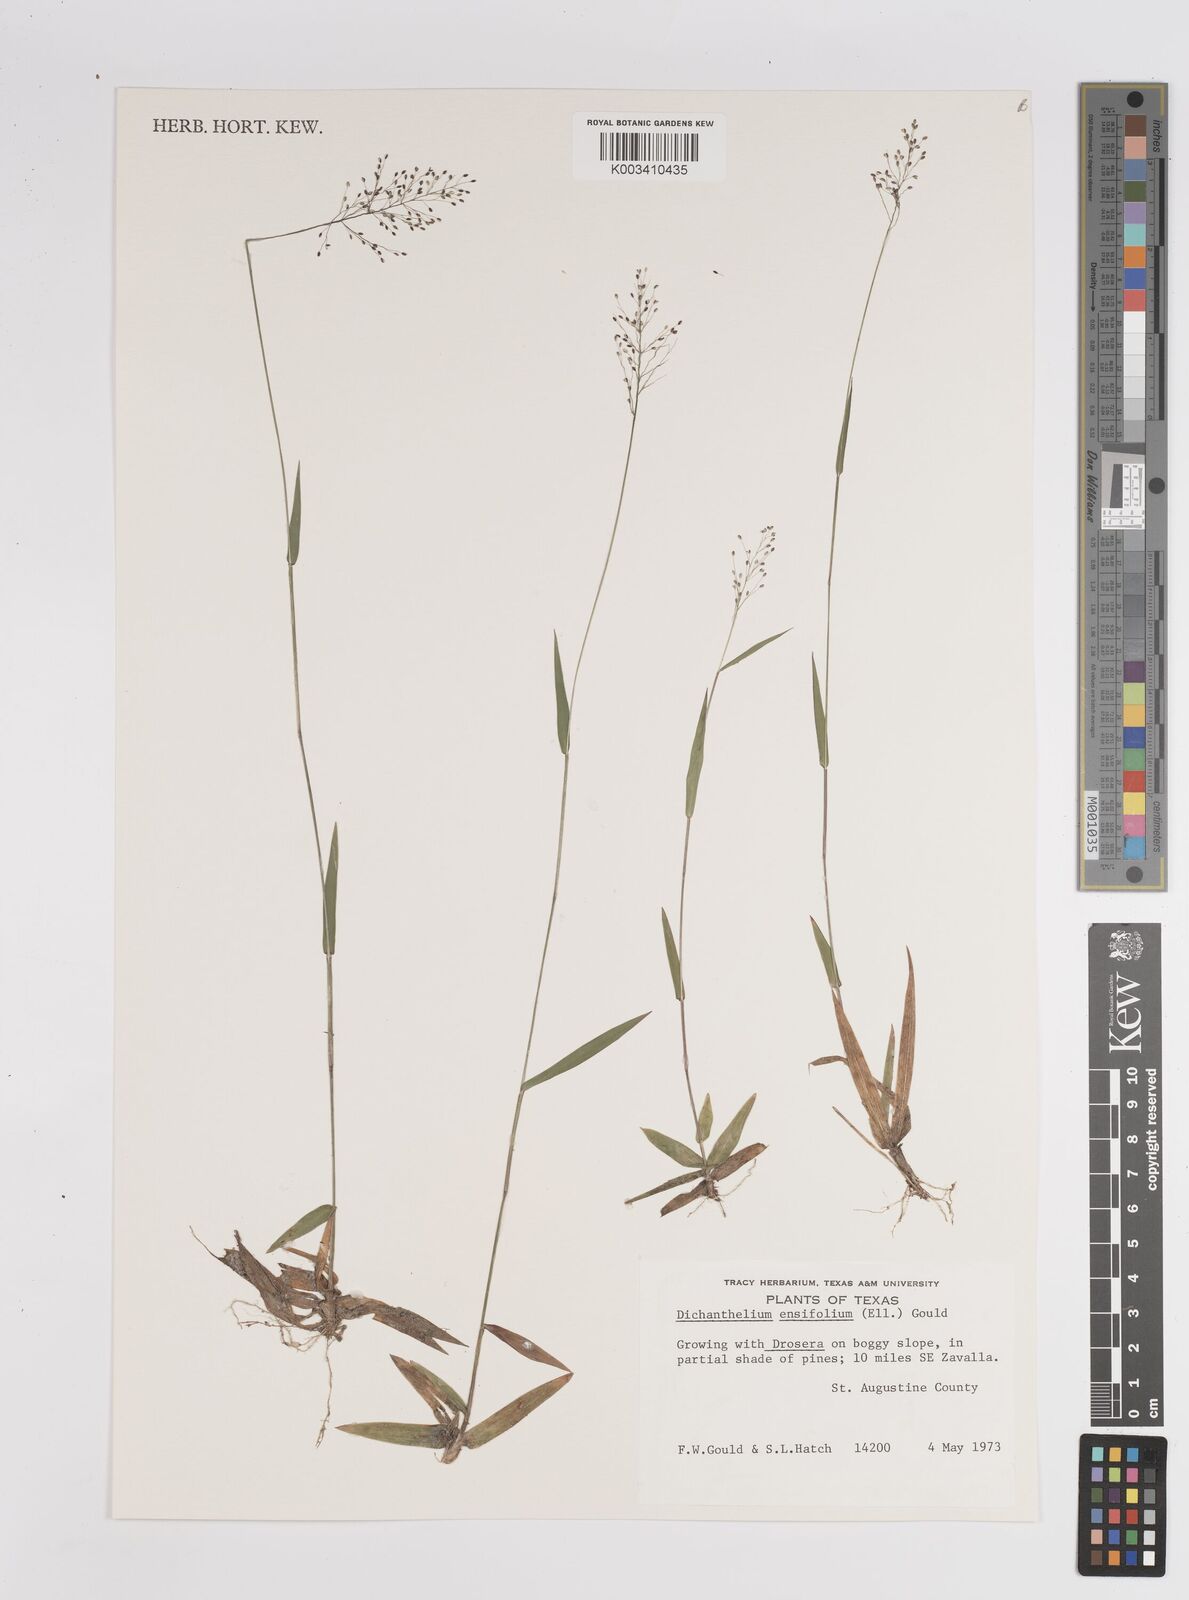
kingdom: Plantae
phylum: Tracheophyta
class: Liliopsida
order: Poales
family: Poaceae
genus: Dichanthelium
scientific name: Dichanthelium ensifolium
